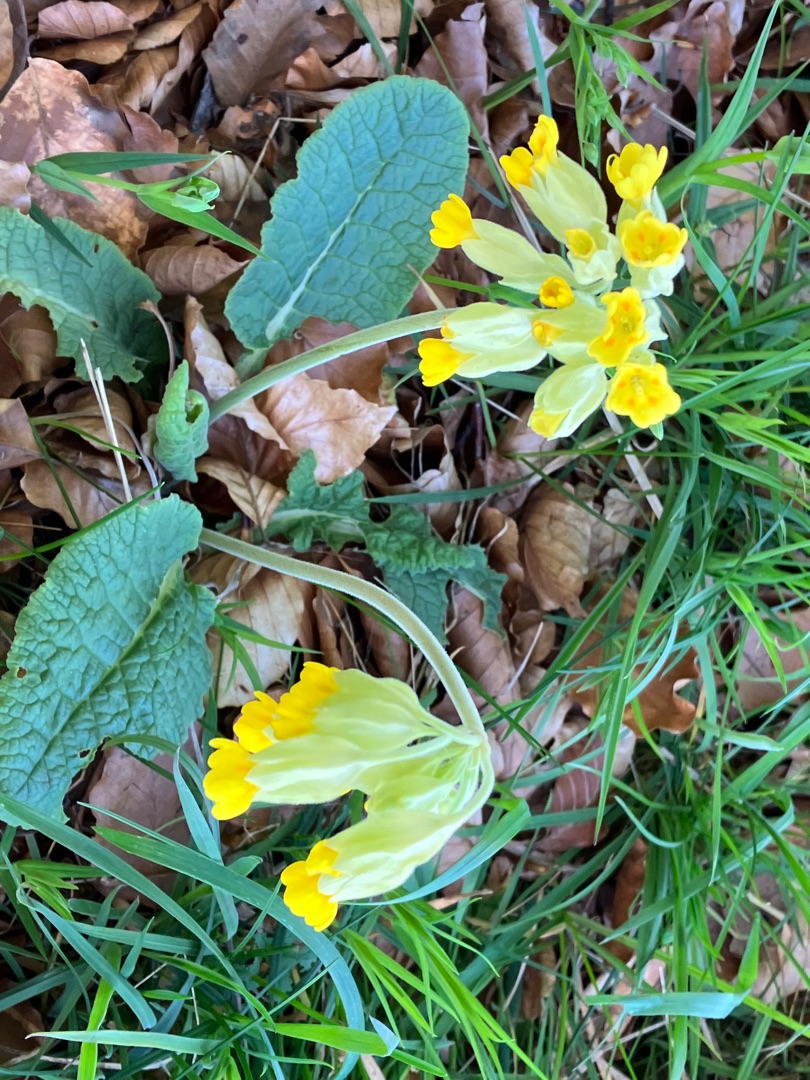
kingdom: Plantae
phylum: Tracheophyta
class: Magnoliopsida
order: Ericales
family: Primulaceae
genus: Primula
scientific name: Primula veris
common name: Hulkravet kodriver
